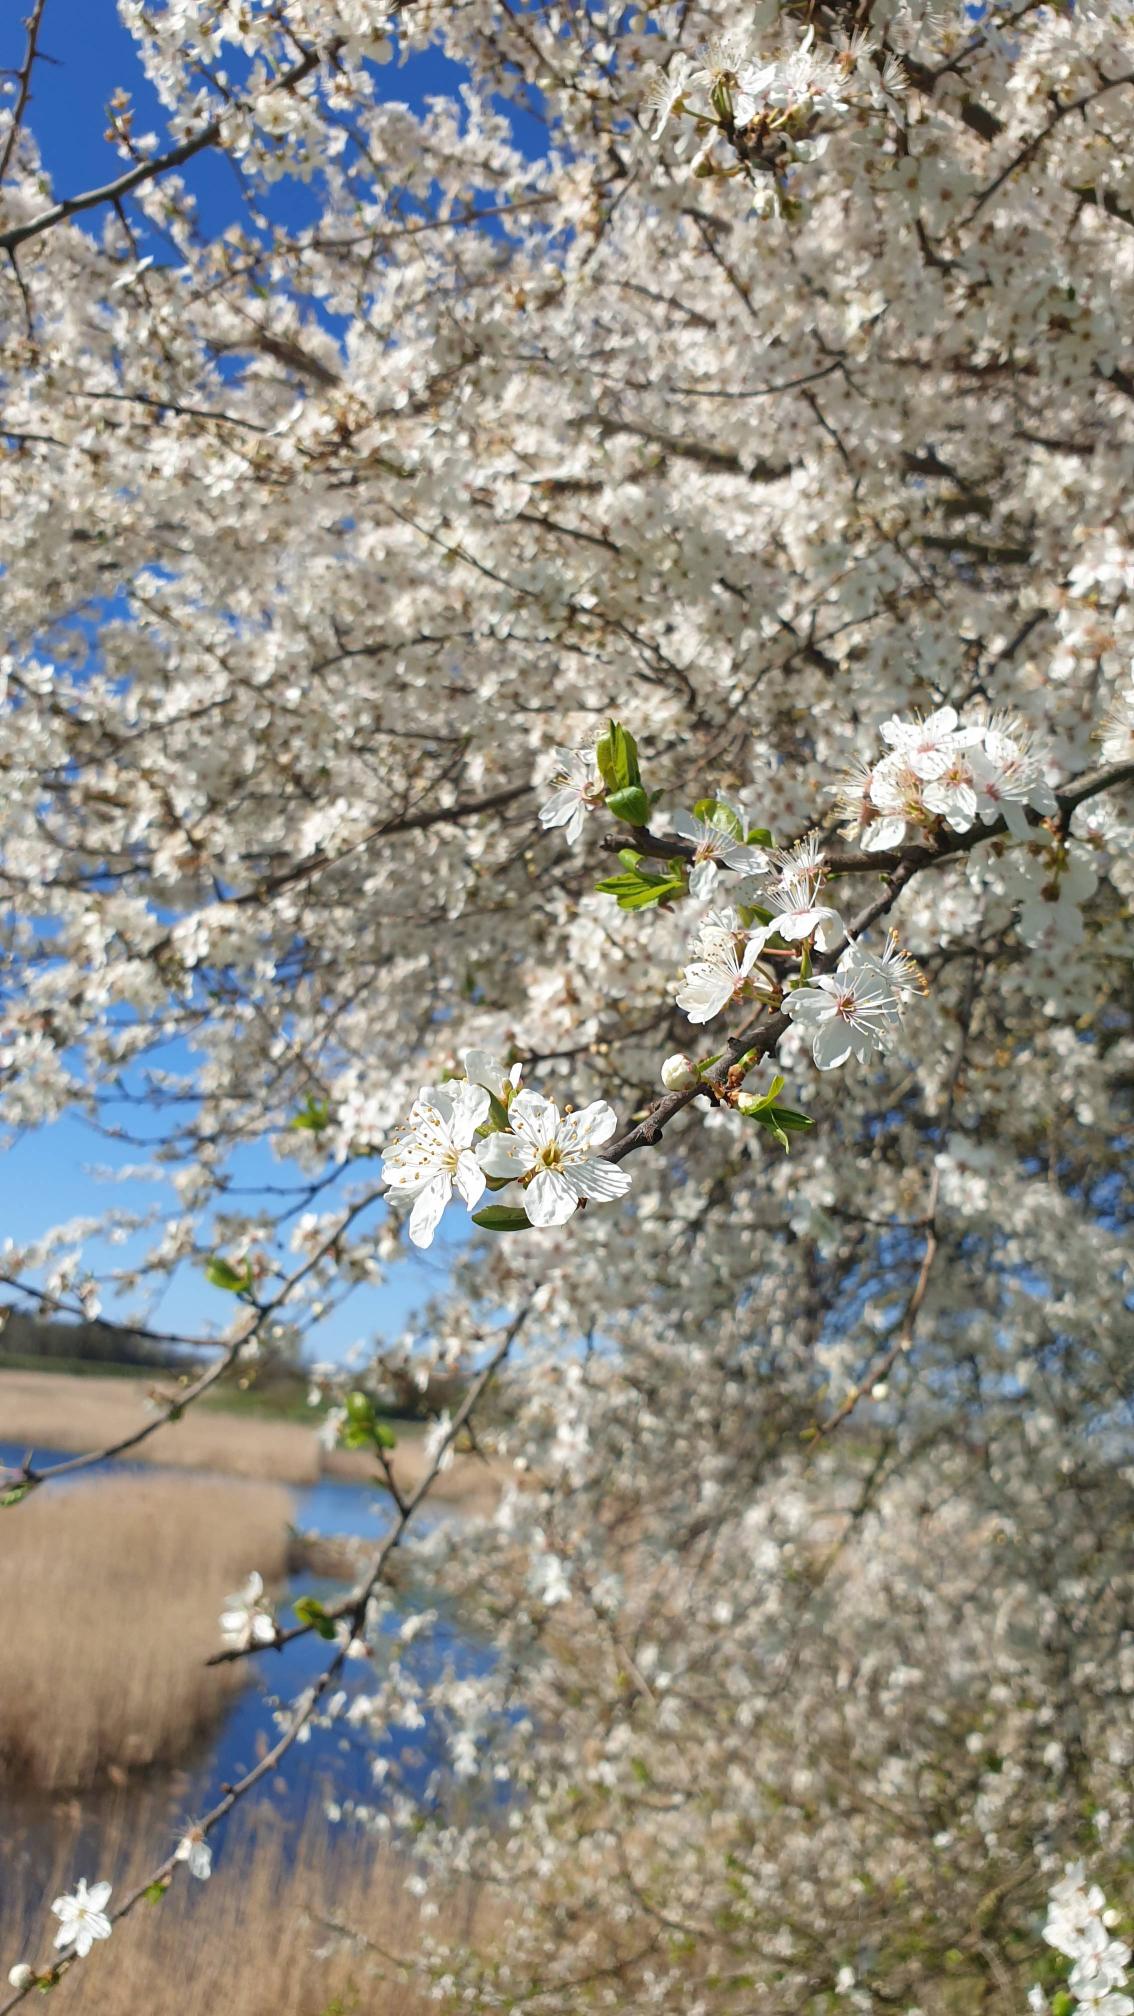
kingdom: Plantae
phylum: Tracheophyta
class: Magnoliopsida
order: Rosales
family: Rosaceae
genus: Prunus
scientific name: Prunus cerasifera
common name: Mirabel
